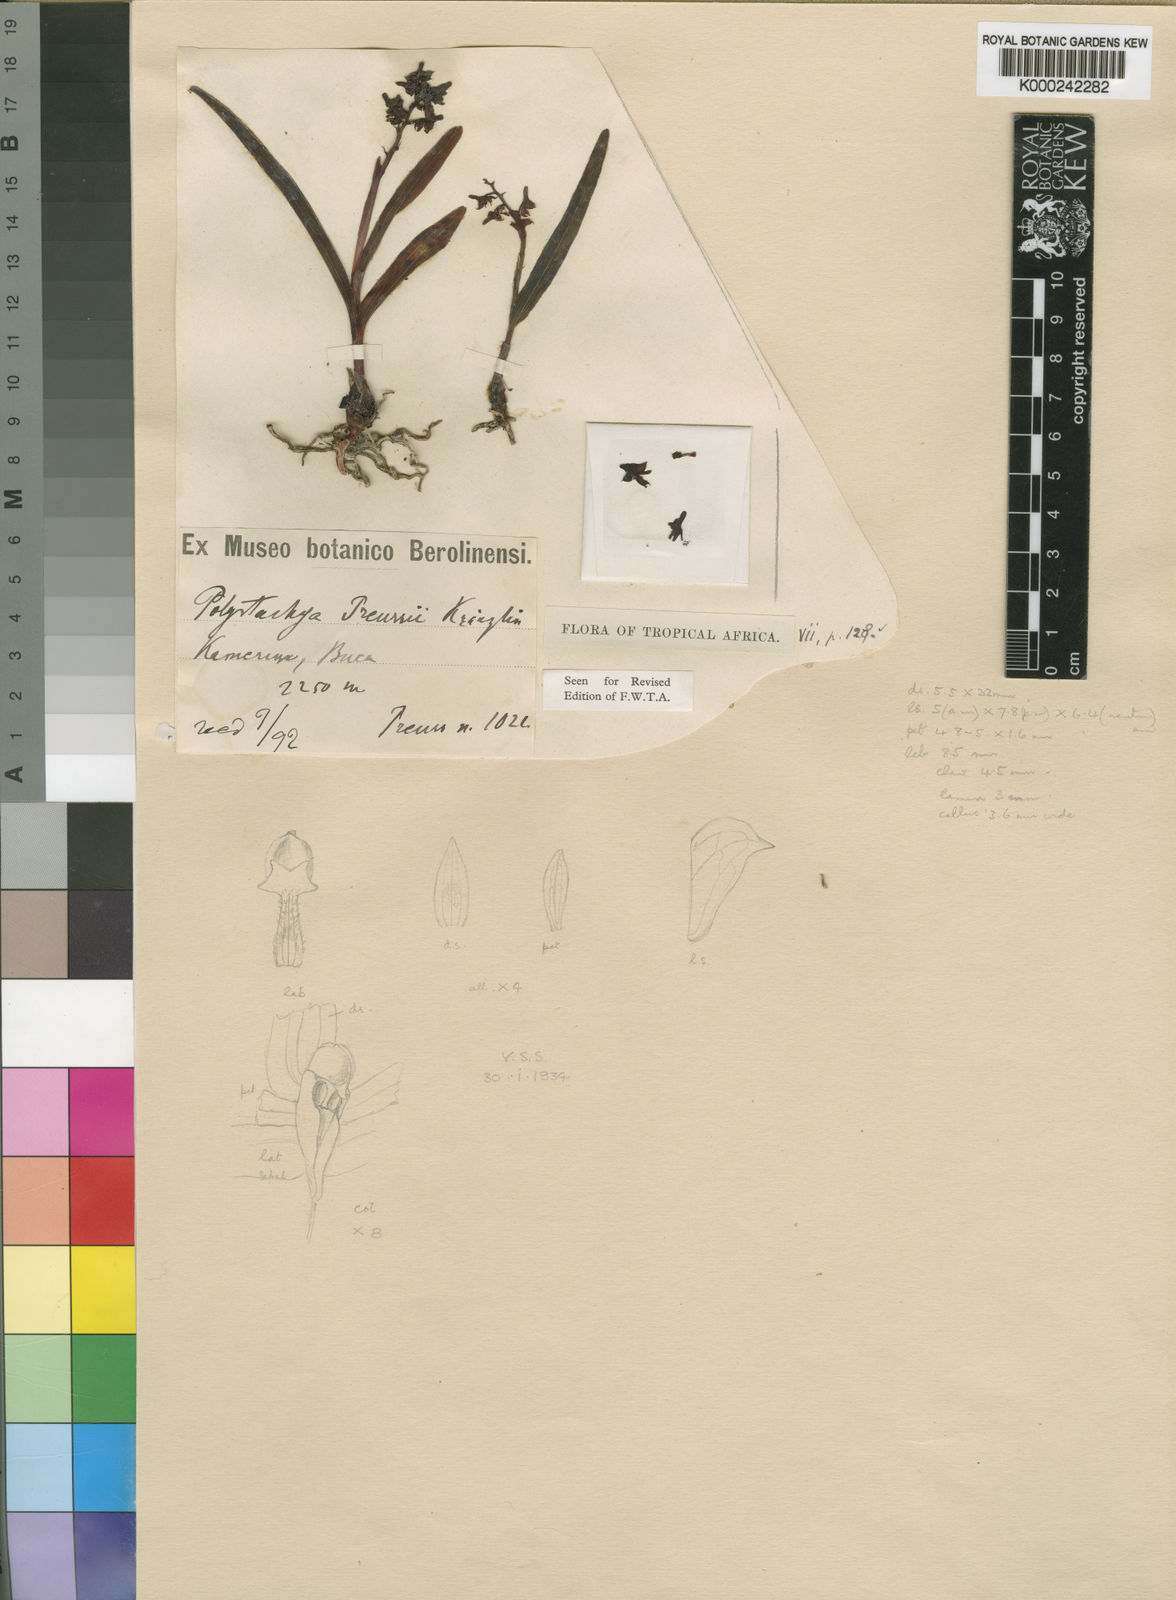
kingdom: Plantae
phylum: Tracheophyta
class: Liliopsida
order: Asparagales
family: Orchidaceae
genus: Polystachya
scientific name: Polystachya alpina
